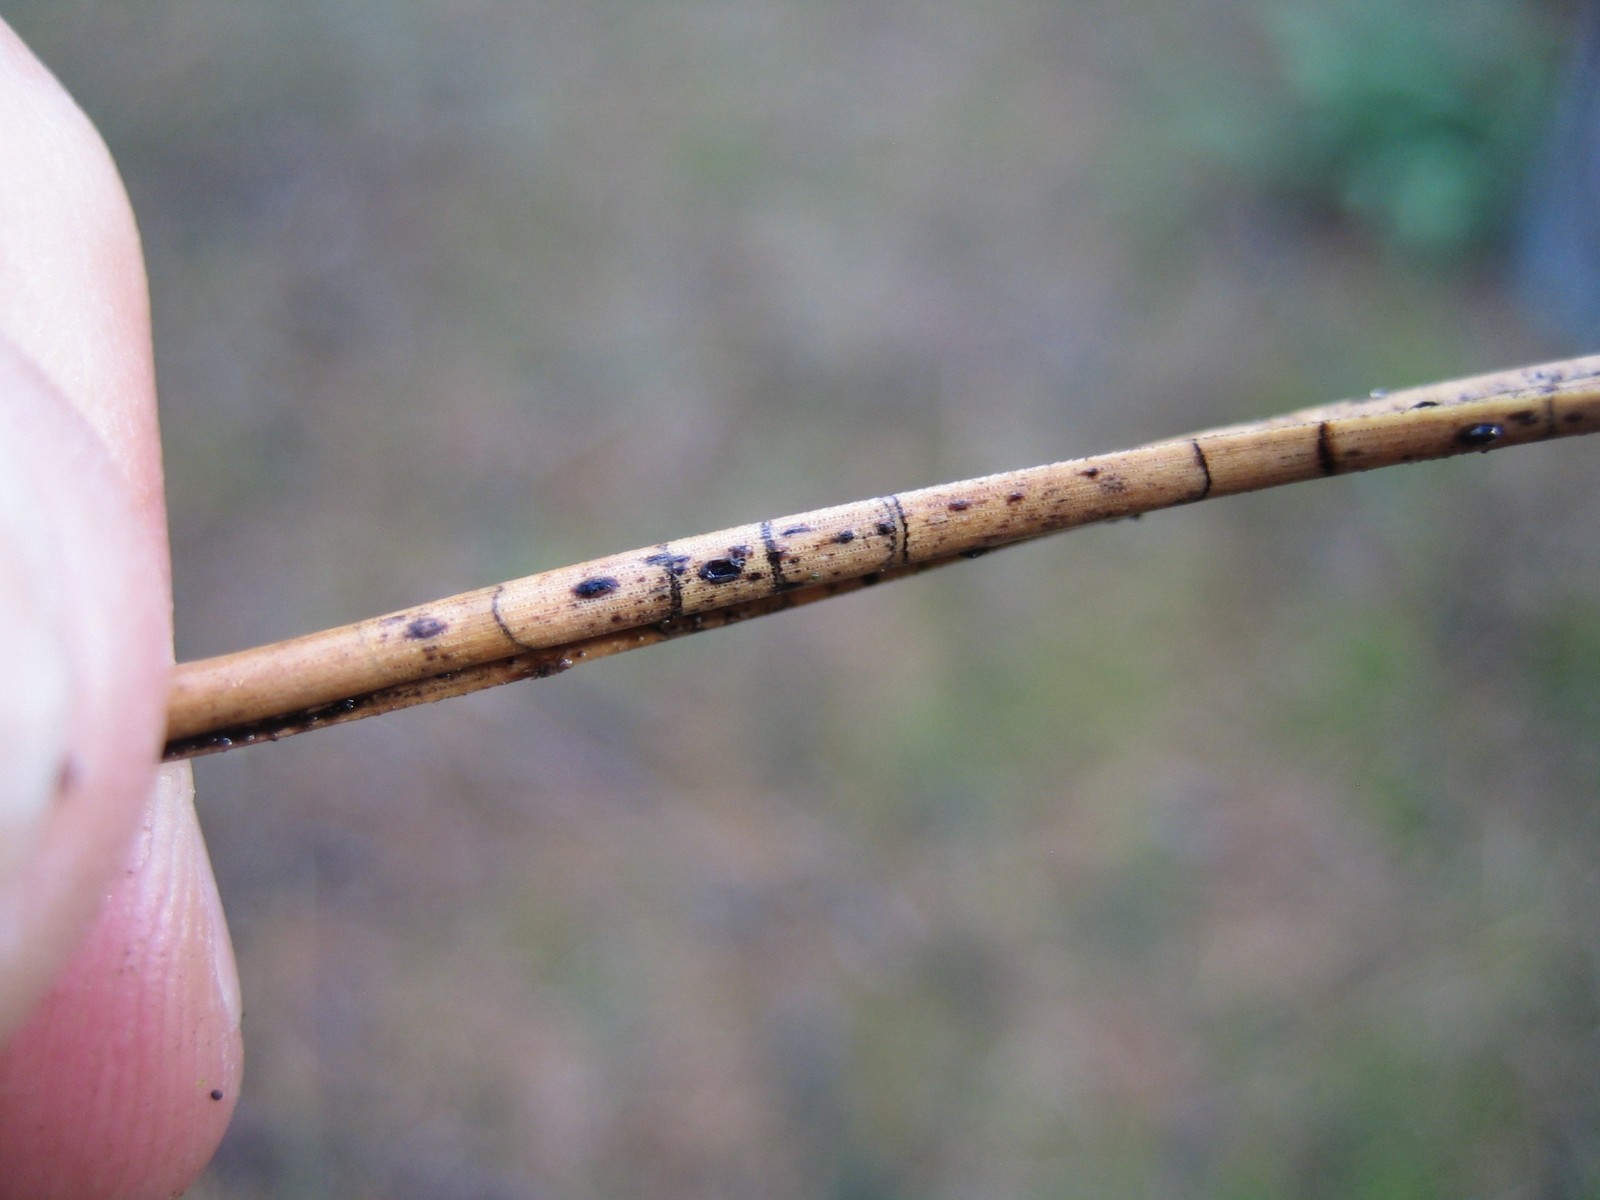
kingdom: Fungi
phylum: Ascomycota
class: Leotiomycetes
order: Rhytismatales
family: Rhytismataceae
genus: Lophodermium
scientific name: Lophodermium pinastri
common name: fyrre-fureplet
